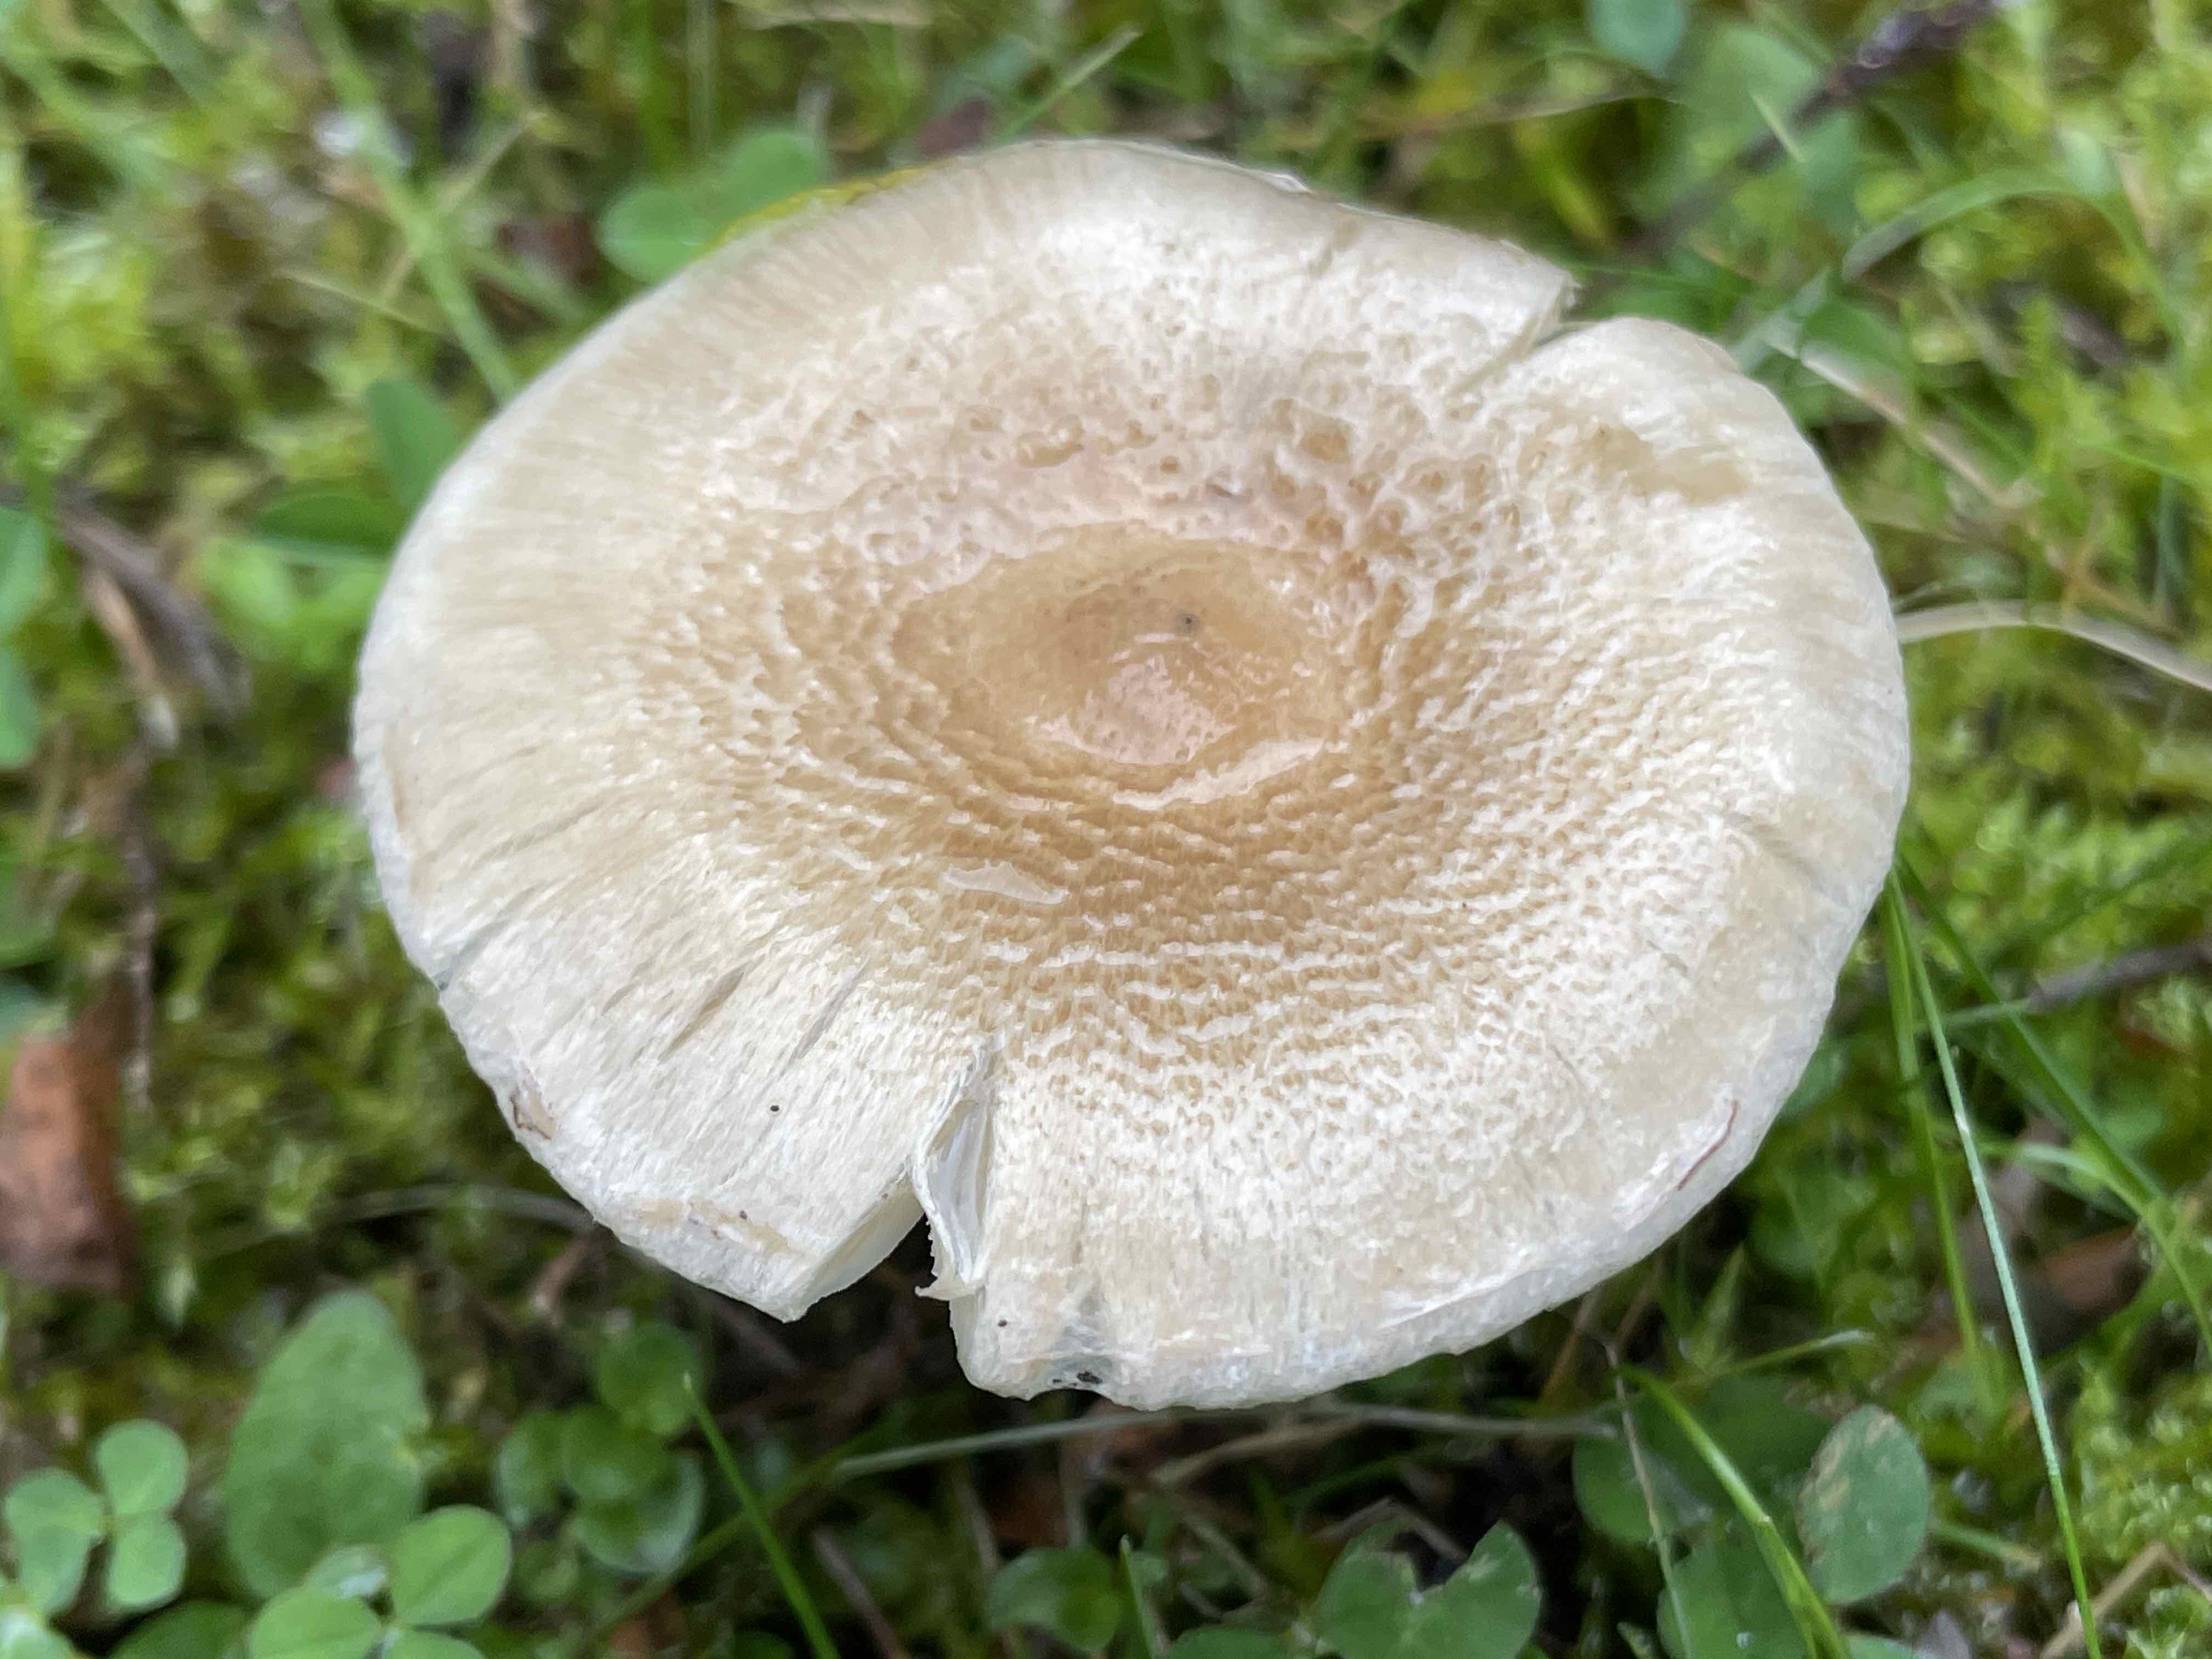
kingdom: Fungi
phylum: Basidiomycota
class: Agaricomycetes
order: Agaricales
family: Inocybaceae
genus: Inocybe
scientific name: Inocybe sindonia
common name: bleg trævlhat
